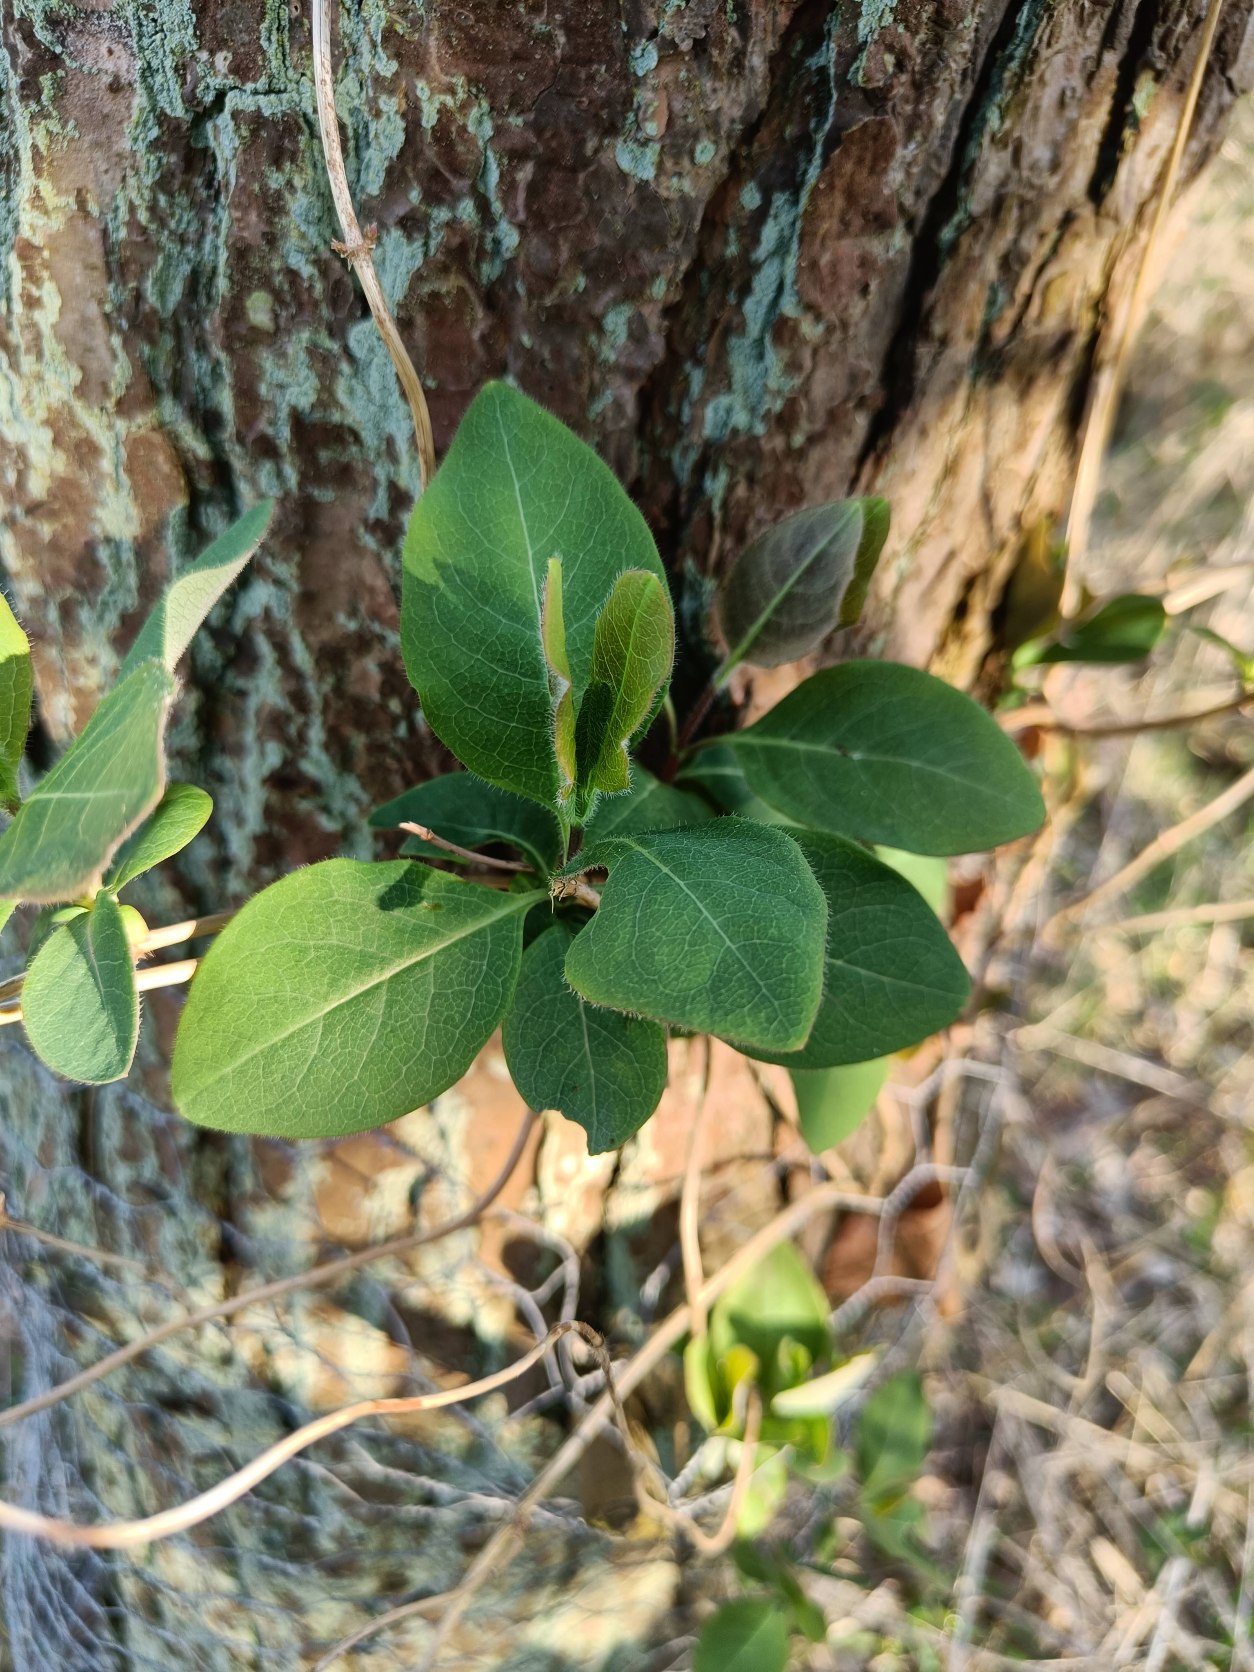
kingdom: Plantae
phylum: Tracheophyta
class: Magnoliopsida
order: Dipsacales
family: Caprifoliaceae
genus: Lonicera
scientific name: Lonicera periclymenum
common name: Almindelig gedeblad
